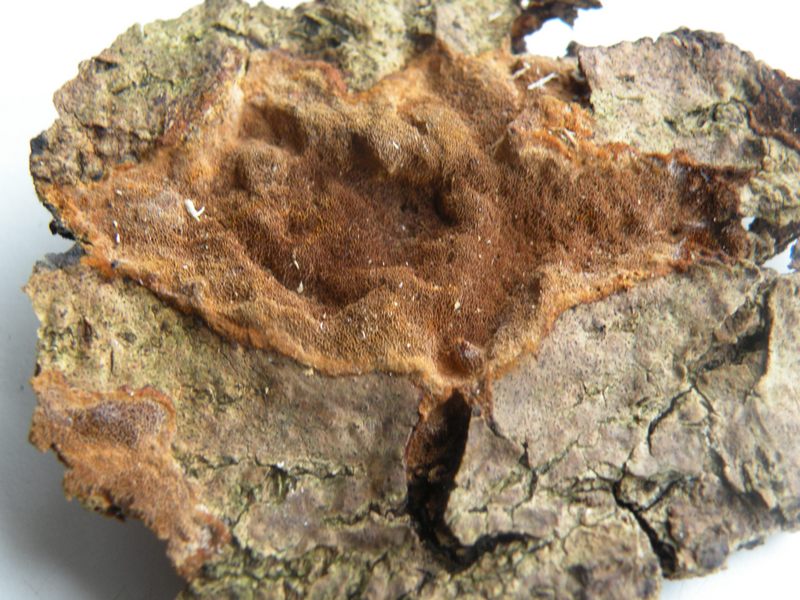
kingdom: Fungi
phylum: Basidiomycota
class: Agaricomycetes
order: Hymenochaetales
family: Hymenochaetaceae
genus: Fuscoporia
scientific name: Fuscoporia ferruginosa
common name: rustbrun ildporesvamp
